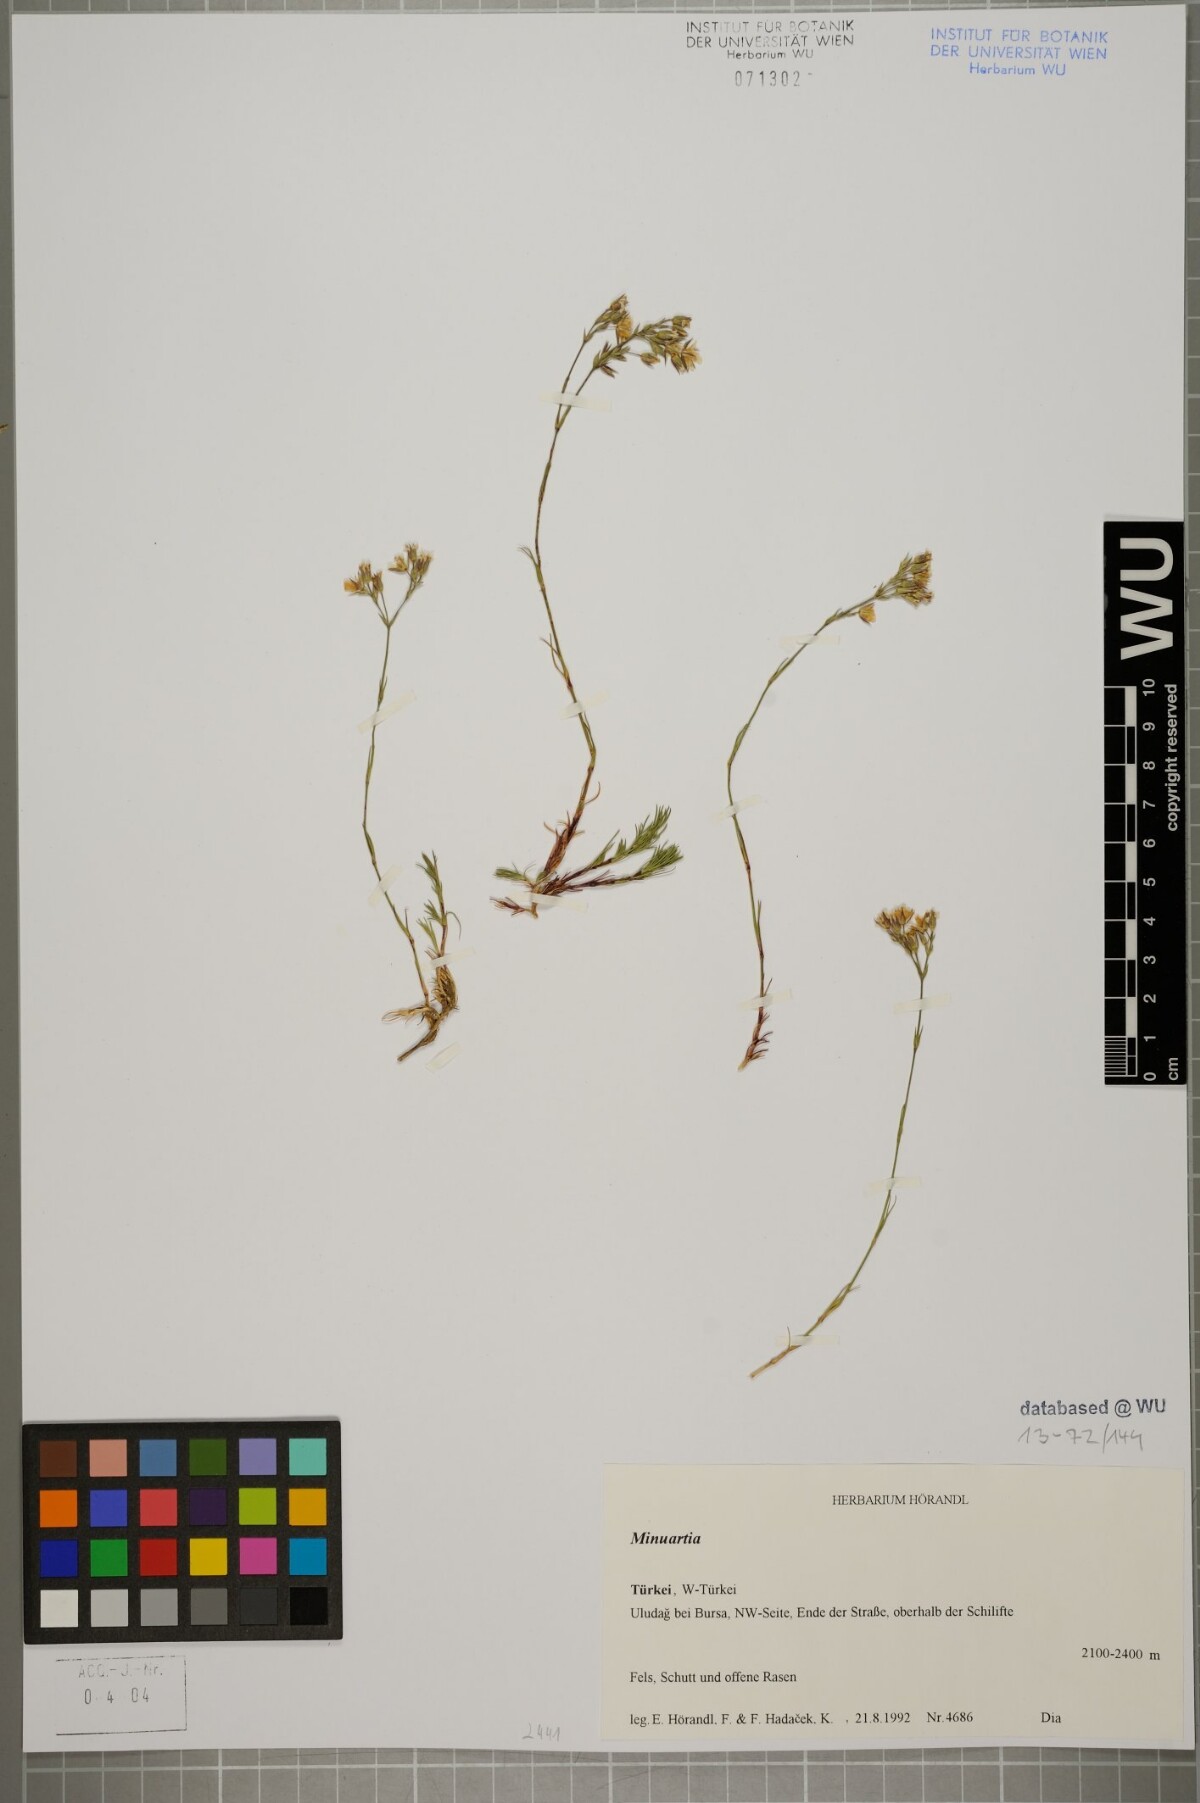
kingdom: Plantae
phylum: Tracheophyta
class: Magnoliopsida
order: Caryophyllales
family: Caryophyllaceae
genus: Minuartia
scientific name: Minuartia hirsuta
